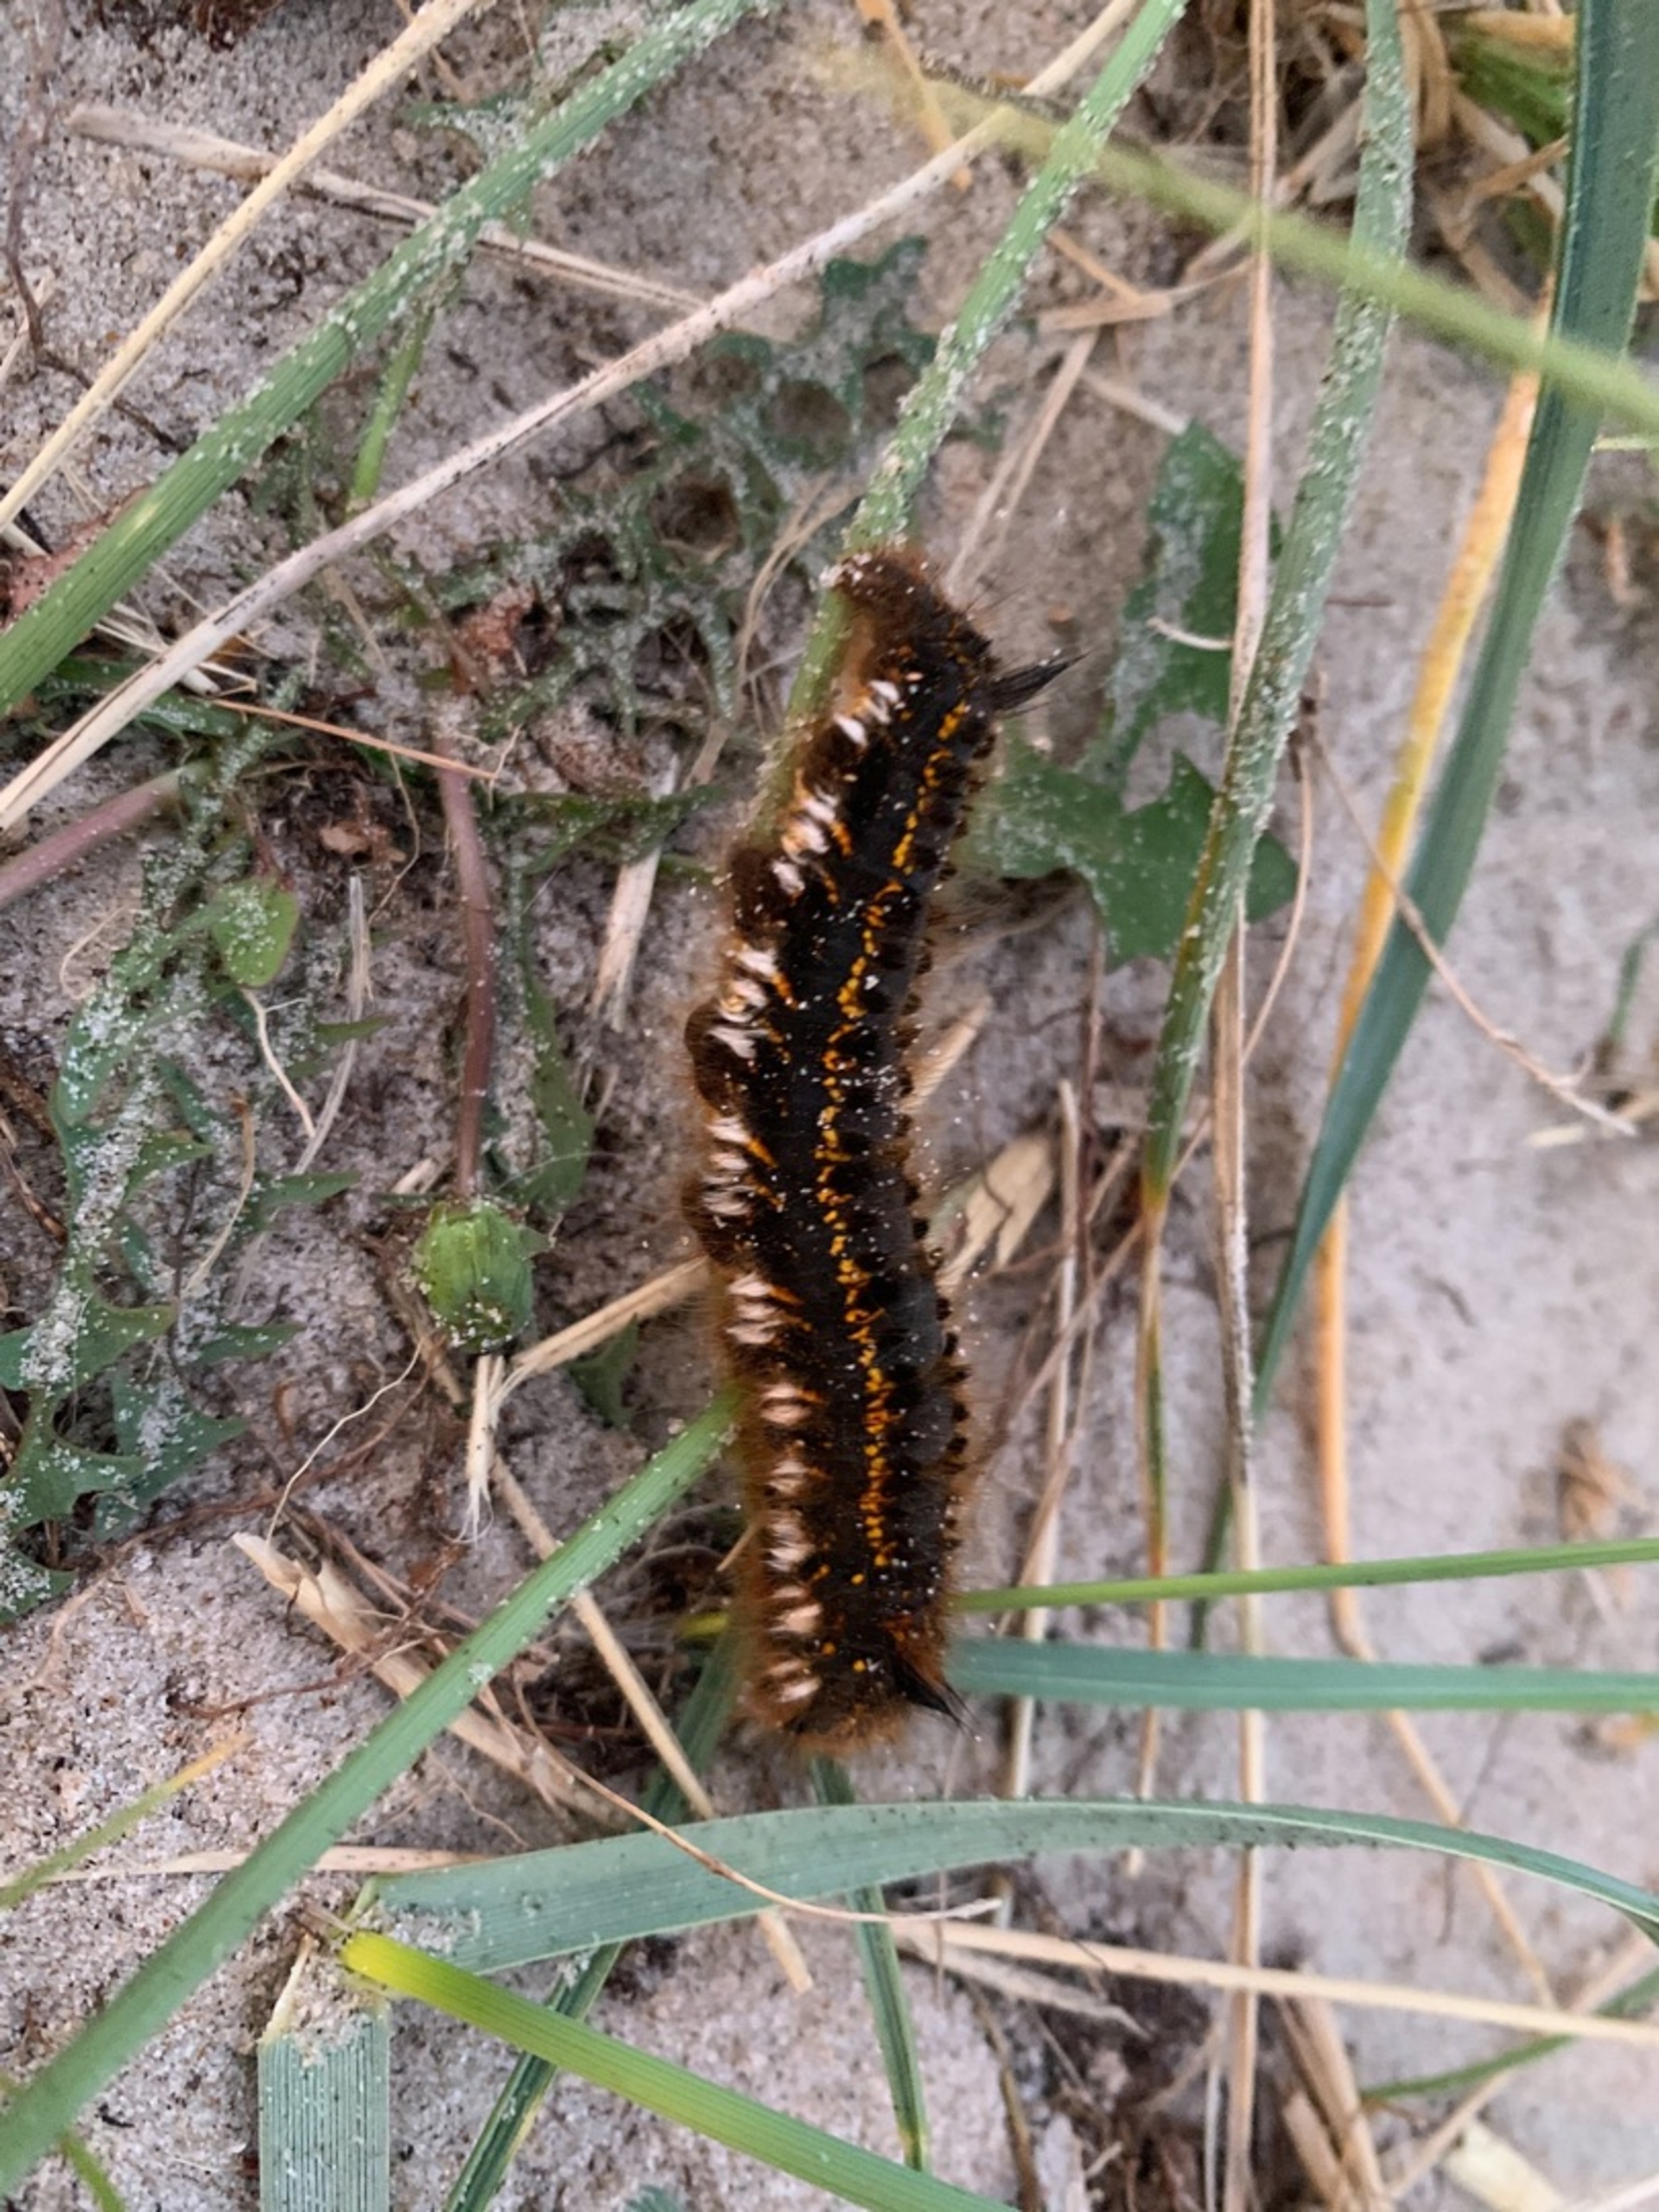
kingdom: Animalia
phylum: Arthropoda
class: Insecta
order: Lepidoptera
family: Lasiocampidae
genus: Euthrix
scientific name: Euthrix potatoria
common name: Græsspinder
